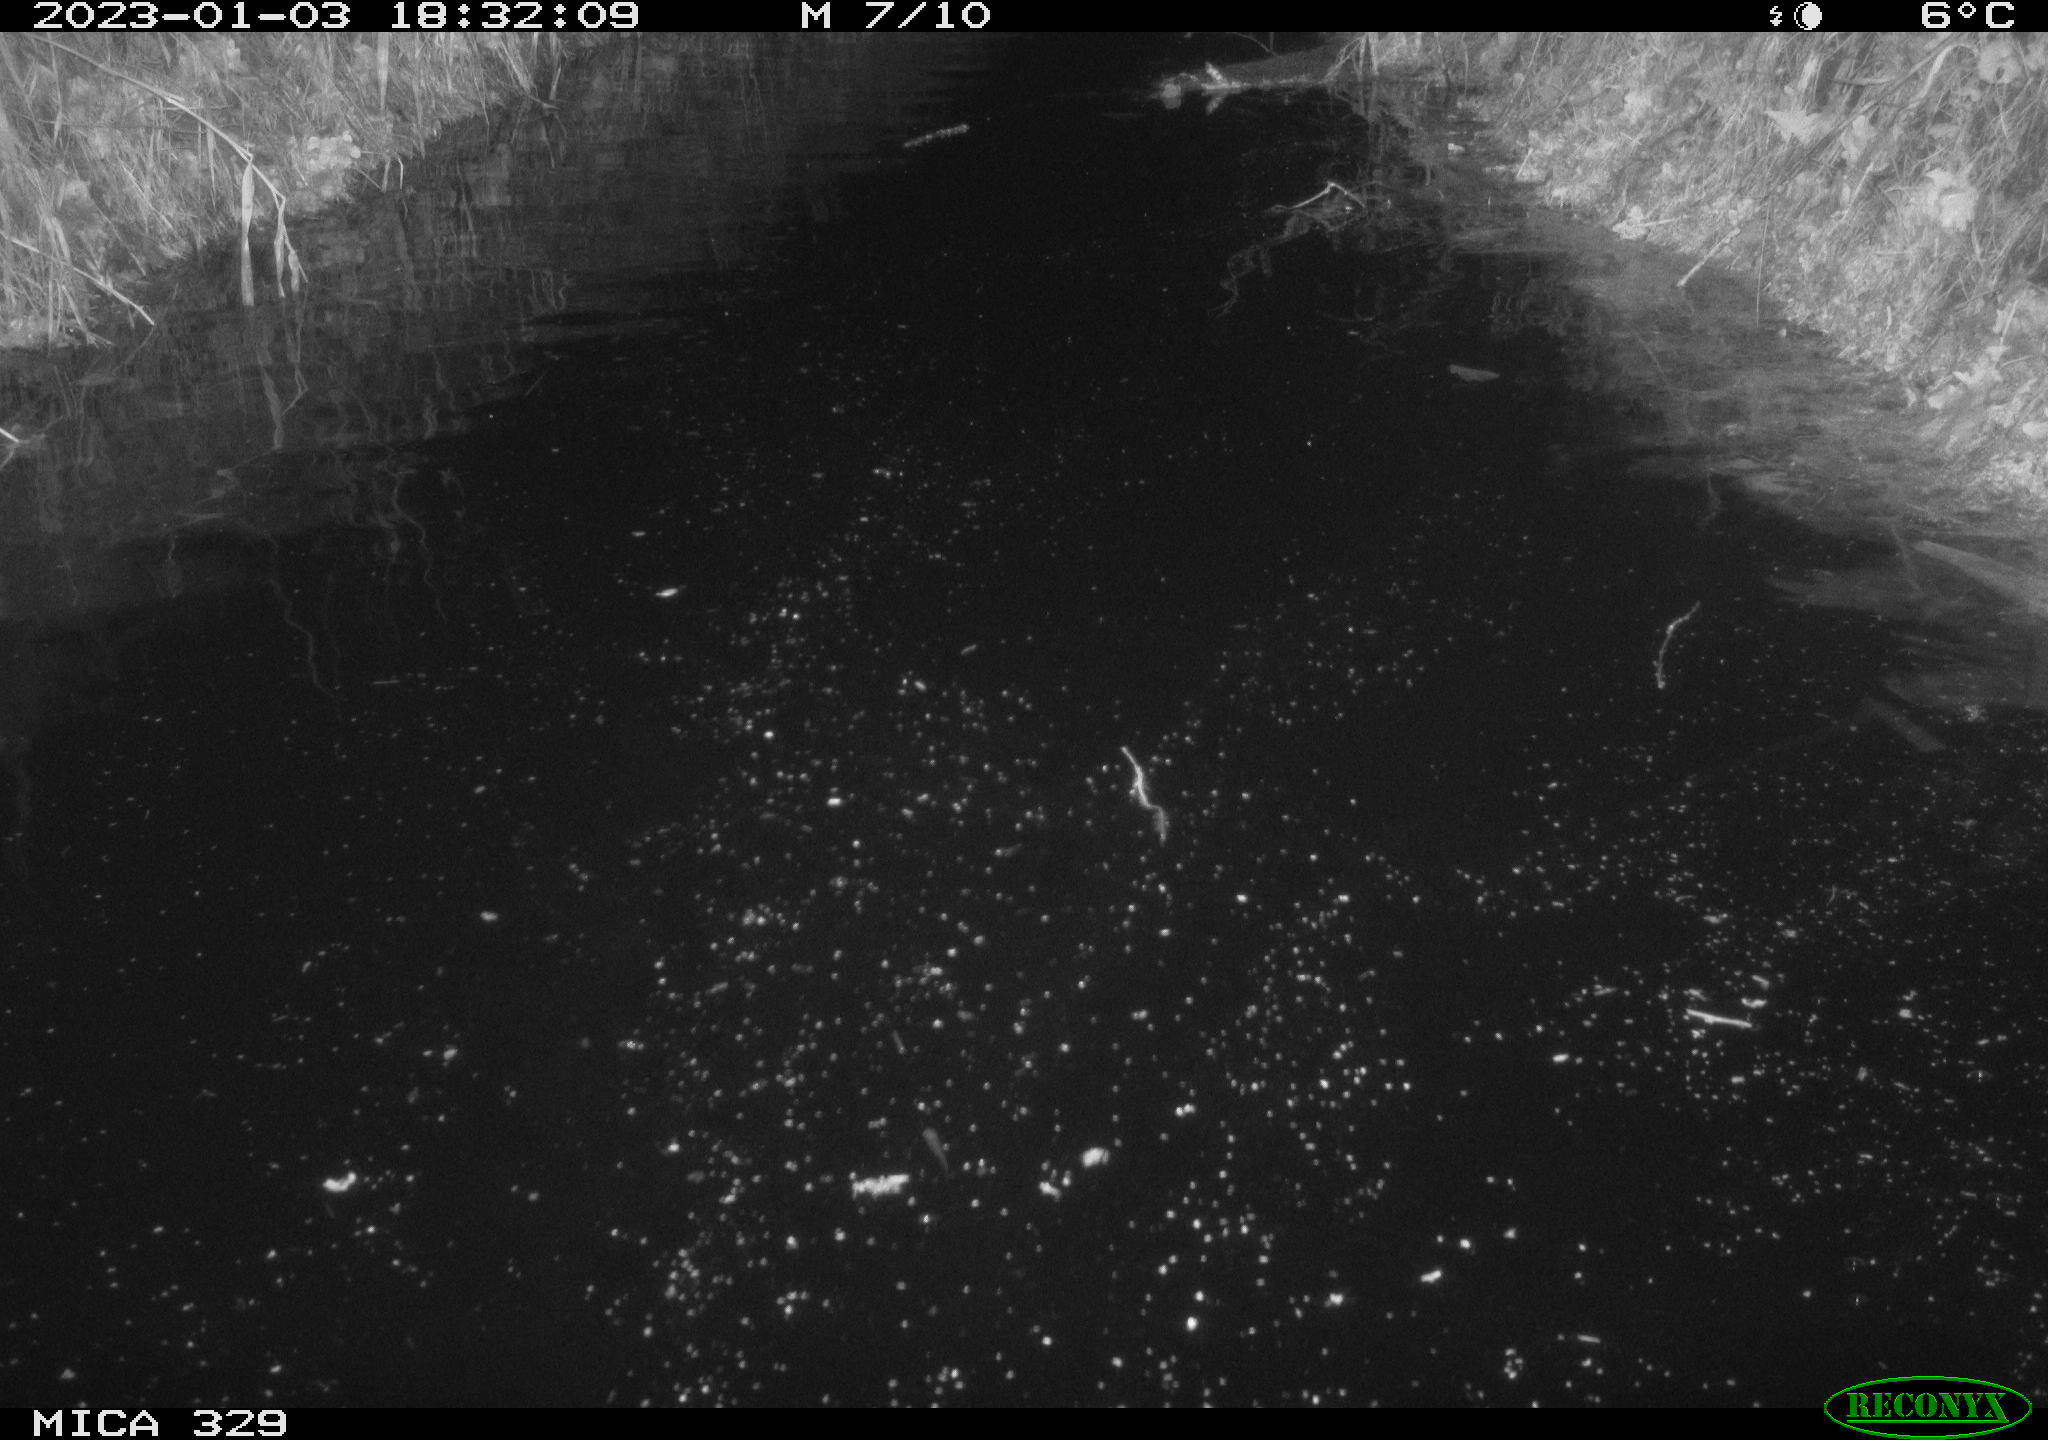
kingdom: Animalia
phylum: Chordata
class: Mammalia
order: Rodentia
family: Cricetidae
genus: Ondatra
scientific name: Ondatra zibethicus
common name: Muskrat
